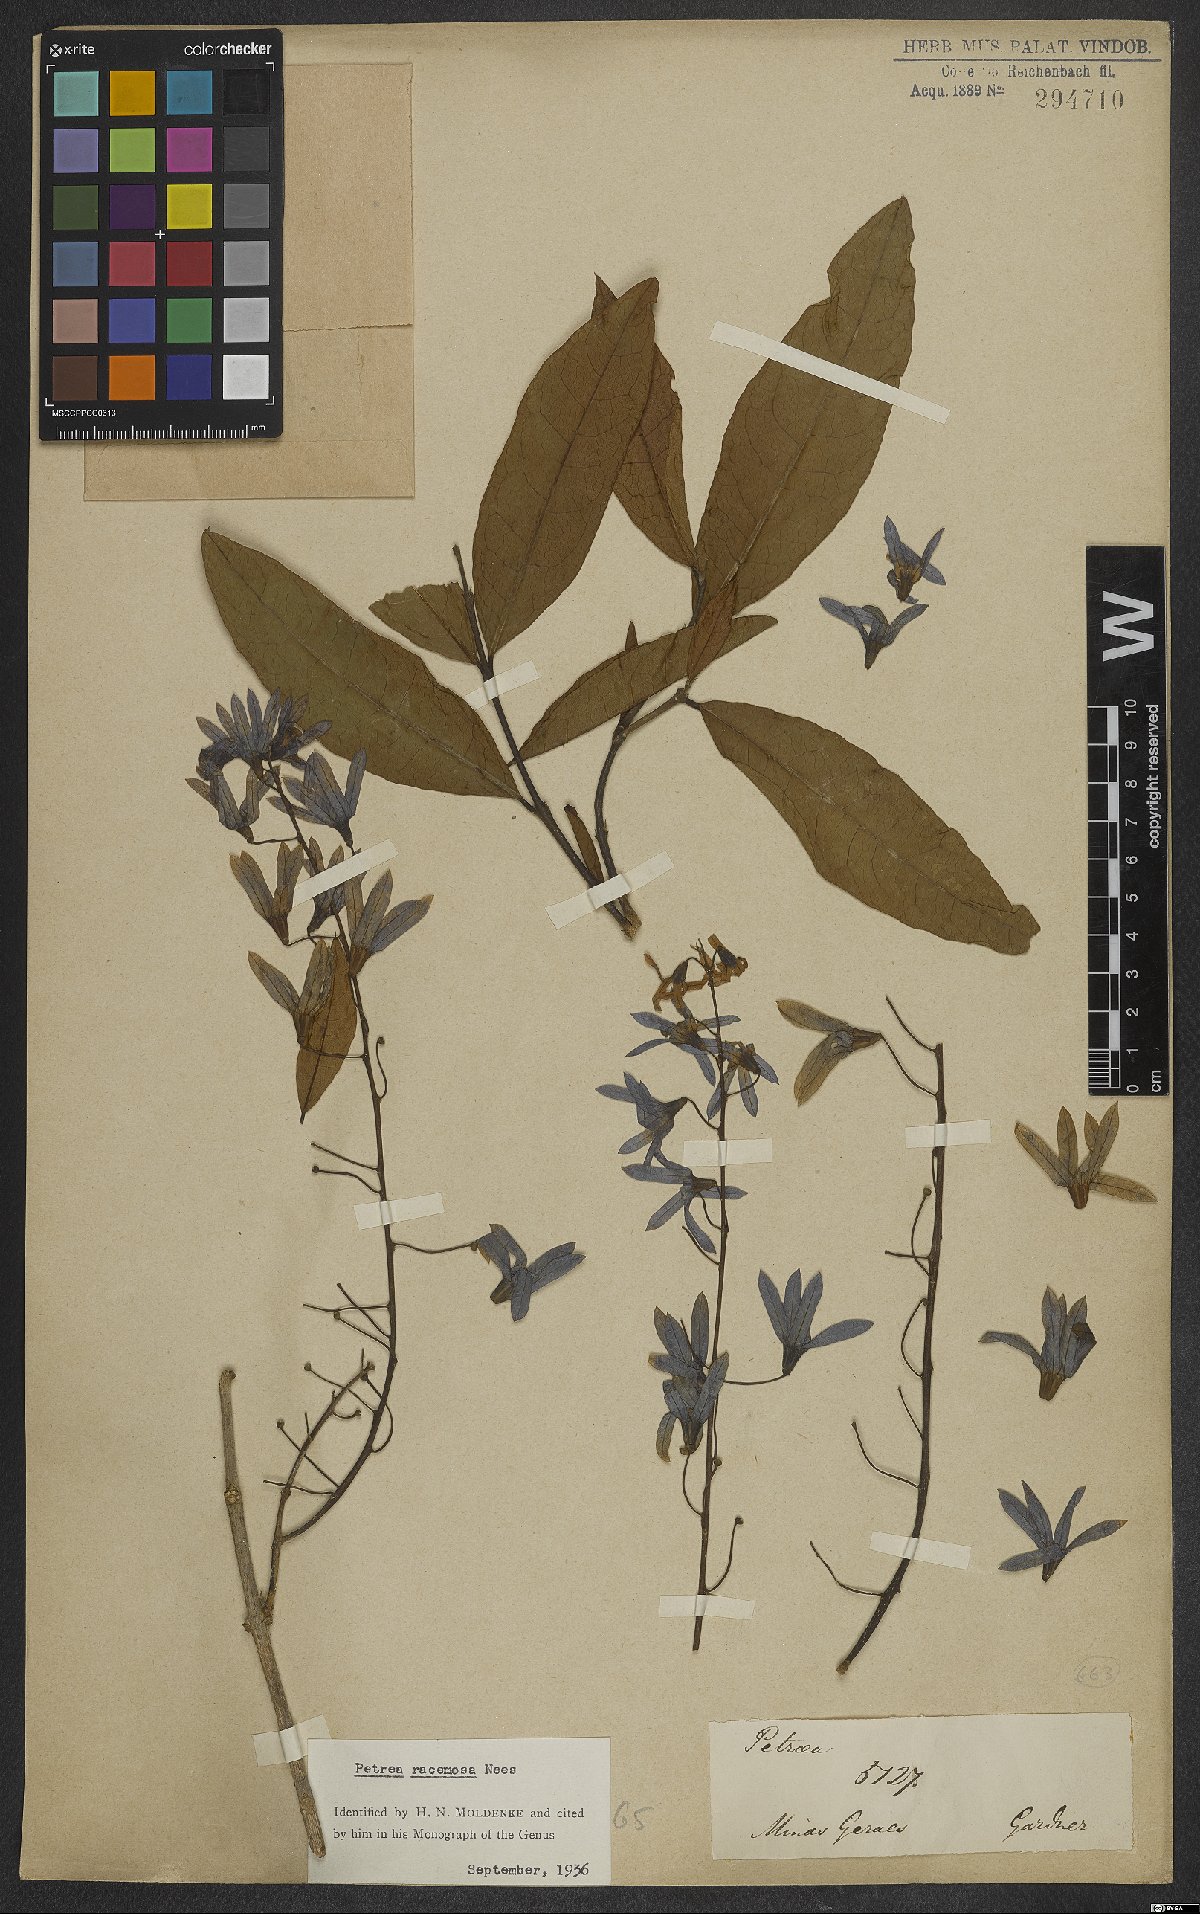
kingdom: Plantae
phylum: Tracheophyta
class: Magnoliopsida
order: Lamiales
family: Verbenaceae
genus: Petrea
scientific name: Petrea volubilis
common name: Queen's-wreath
